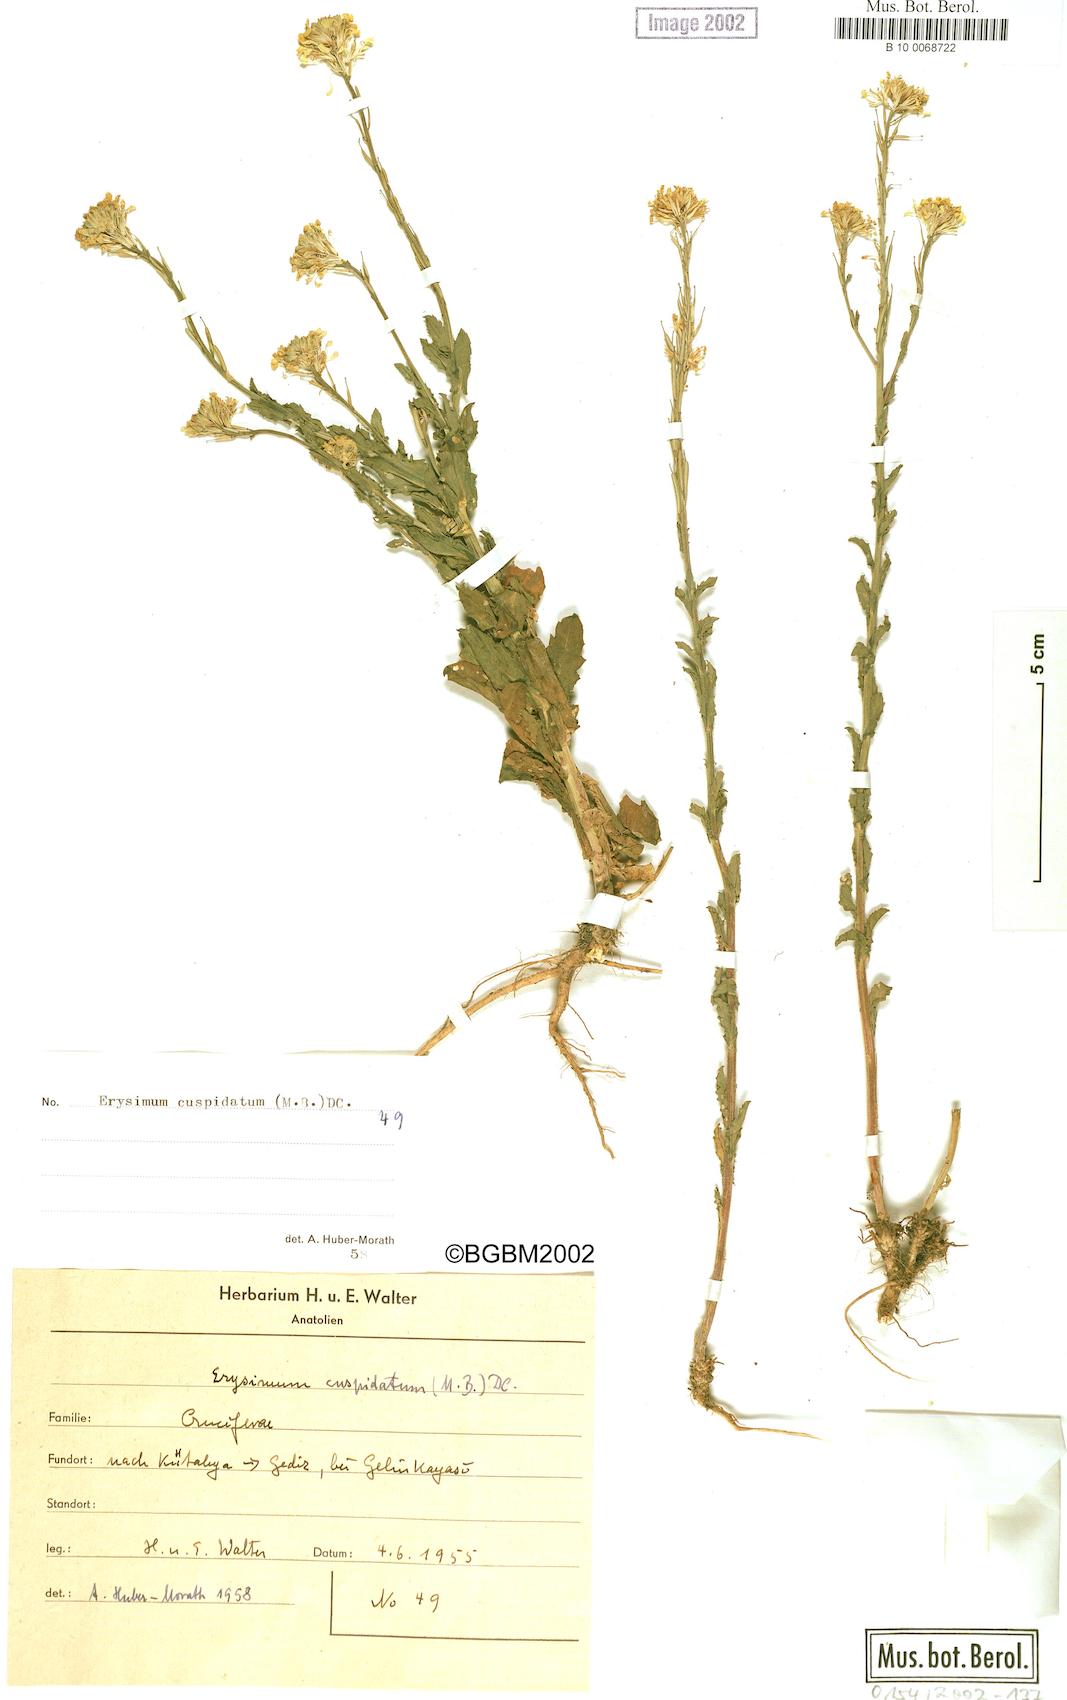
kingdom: Plantae
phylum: Tracheophyta
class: Magnoliopsida
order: Brassicales
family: Brassicaceae
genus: Erysimum
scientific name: Erysimum cuspidatum
